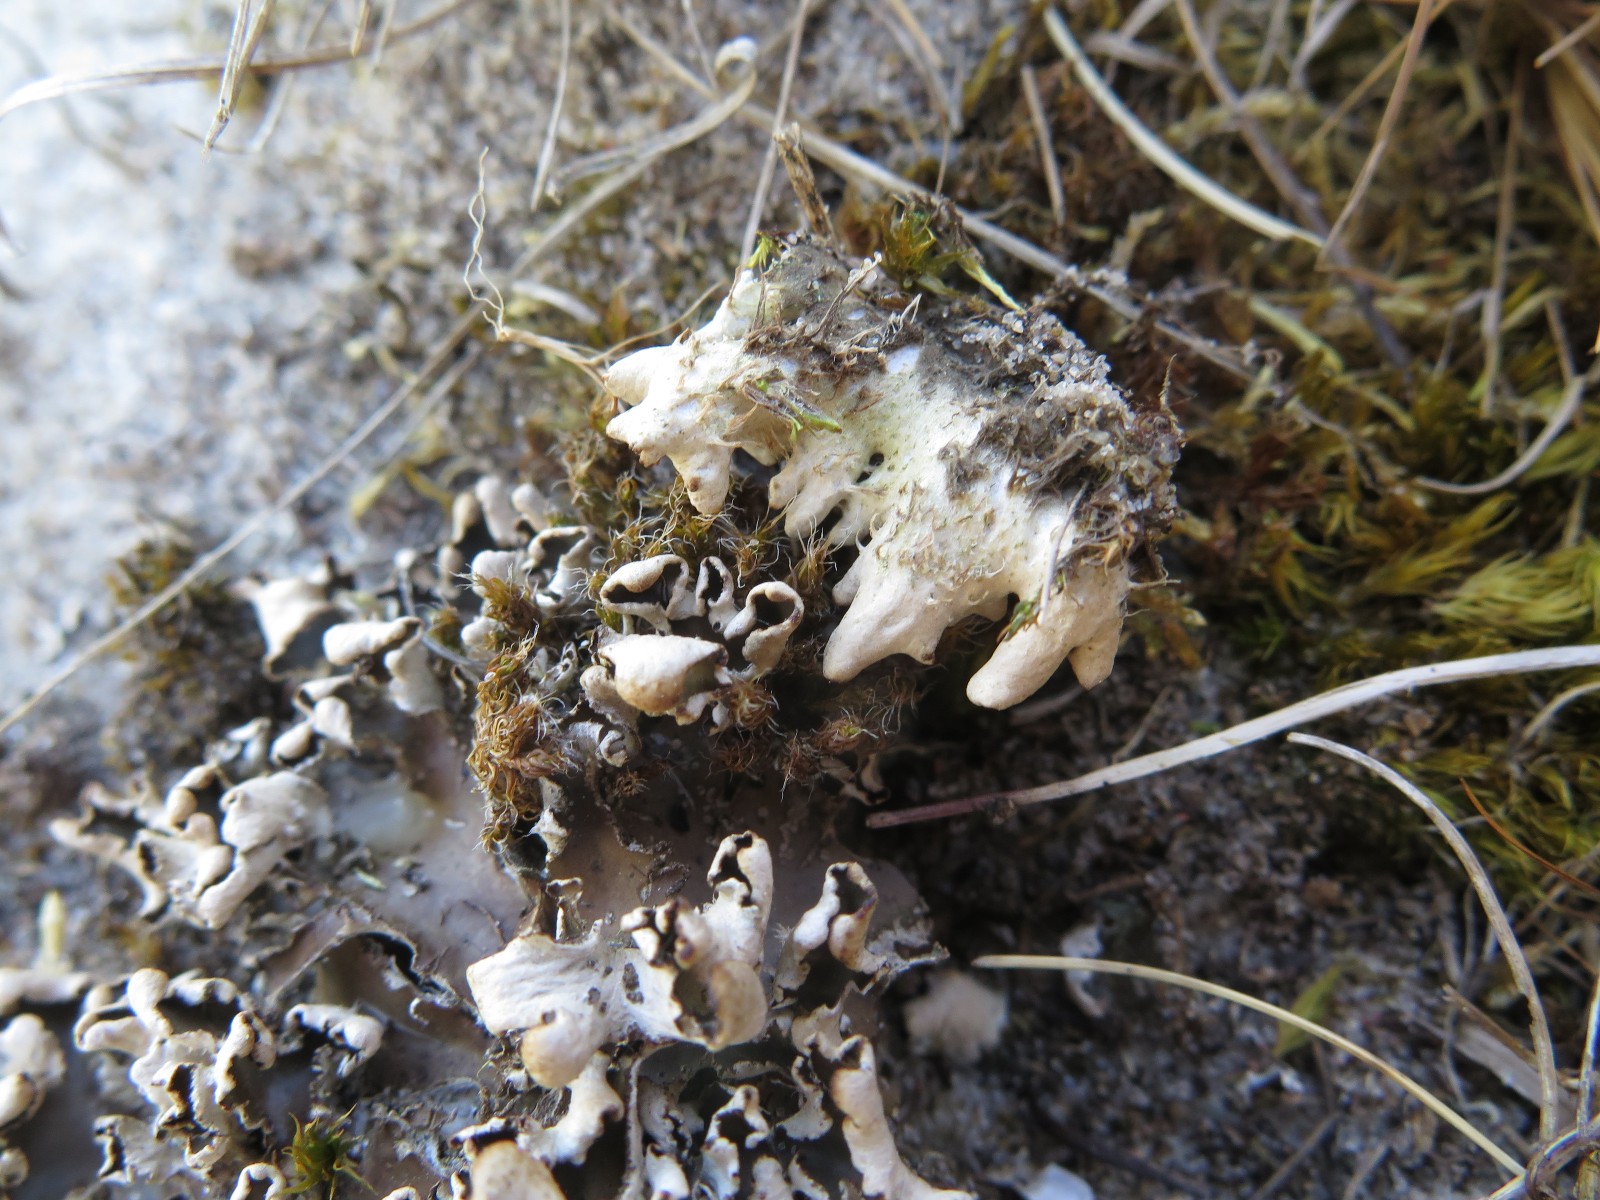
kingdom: Fungi
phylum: Ascomycota
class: Lecanoromycetes
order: Peltigerales
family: Peltigeraceae
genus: Peltigera
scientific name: Peltigera hymenina
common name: hinde-skjoldlav
